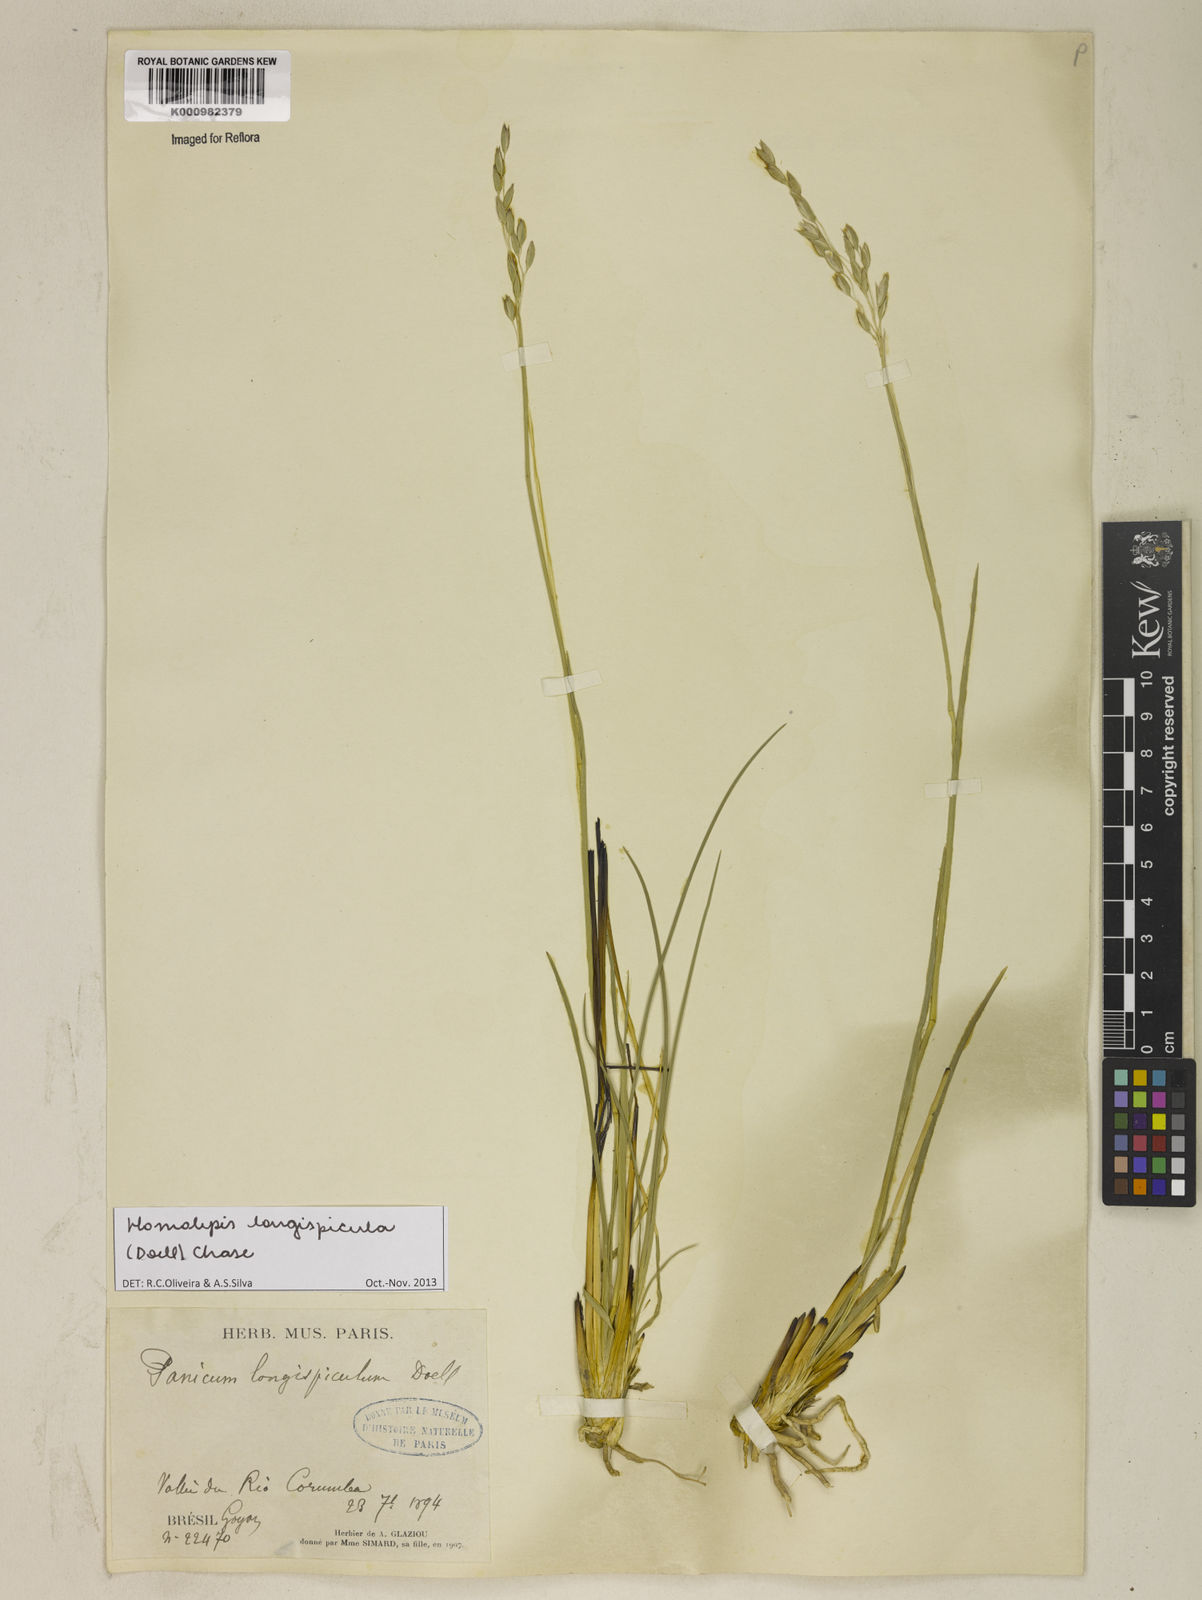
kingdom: Plantae
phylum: Tracheophyta
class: Liliopsida
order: Poales
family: Poaceae
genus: Homolepis
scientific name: Homolepis
